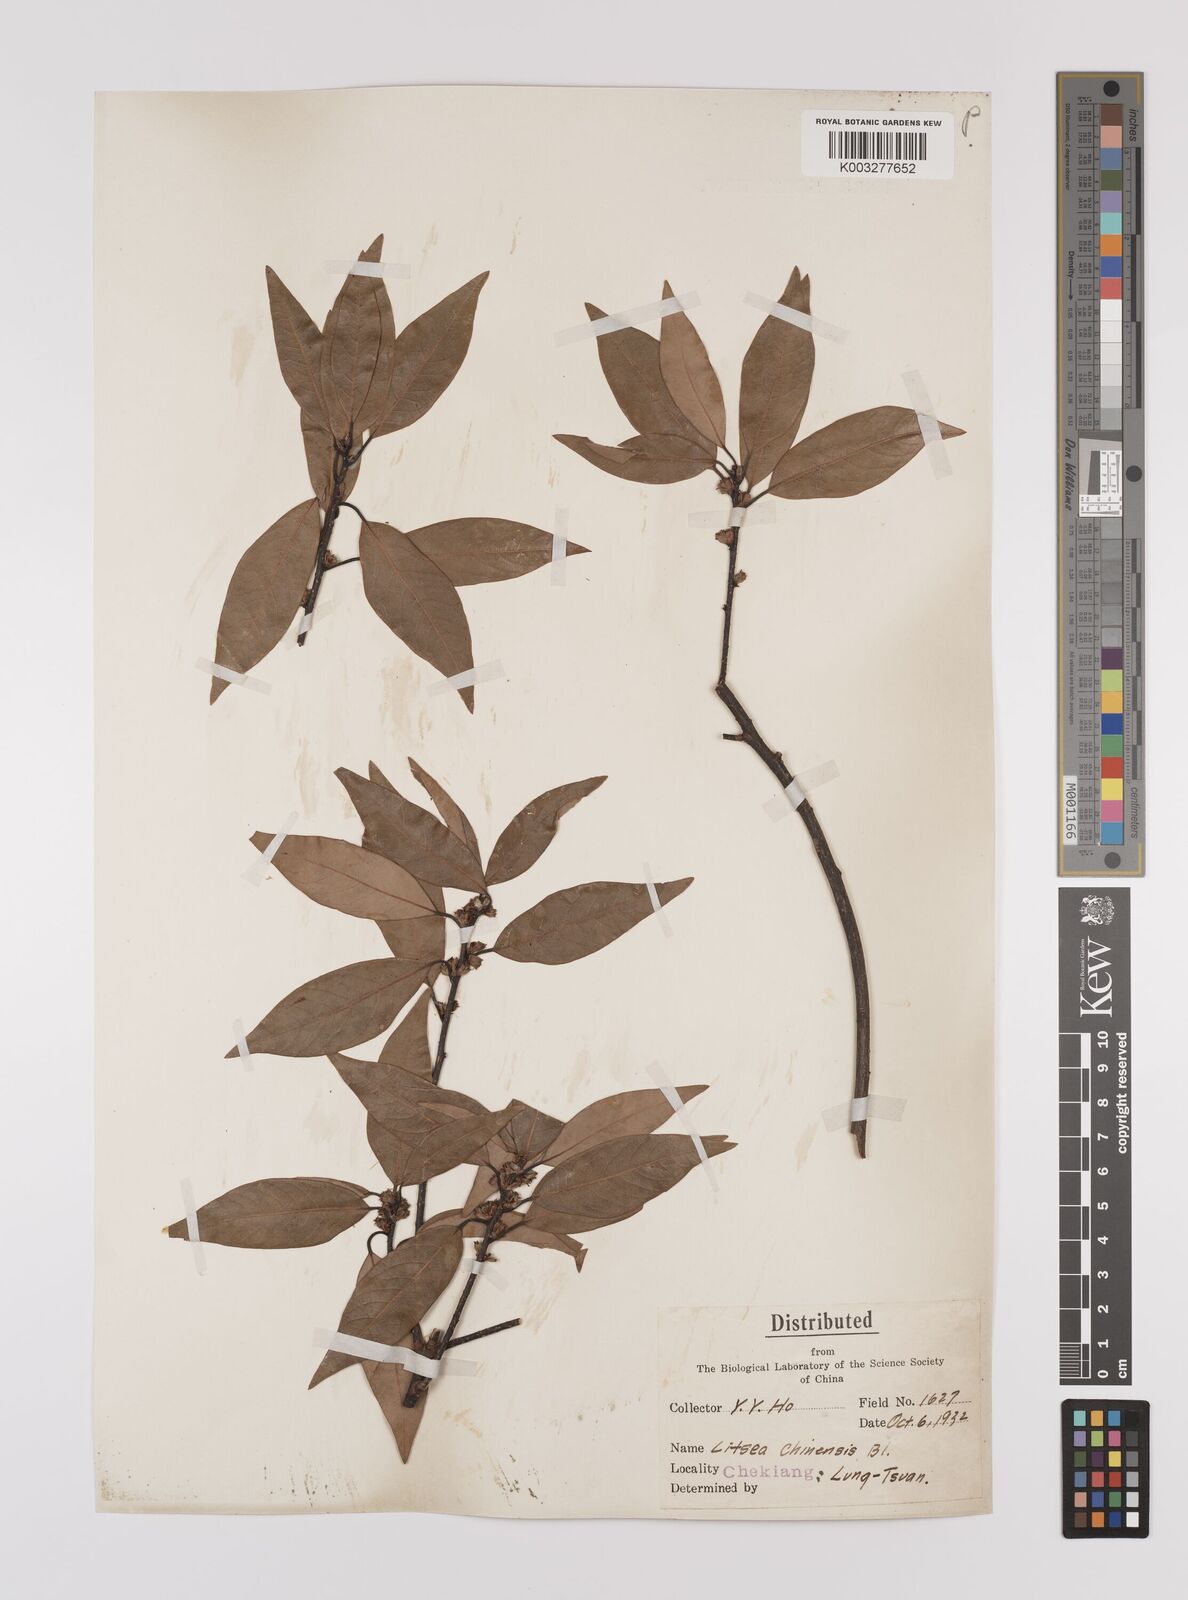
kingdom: Plantae
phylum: Tracheophyta
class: Magnoliopsida
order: Laurales
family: Lauraceae
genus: Litsea
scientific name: Litsea rotundifolia
